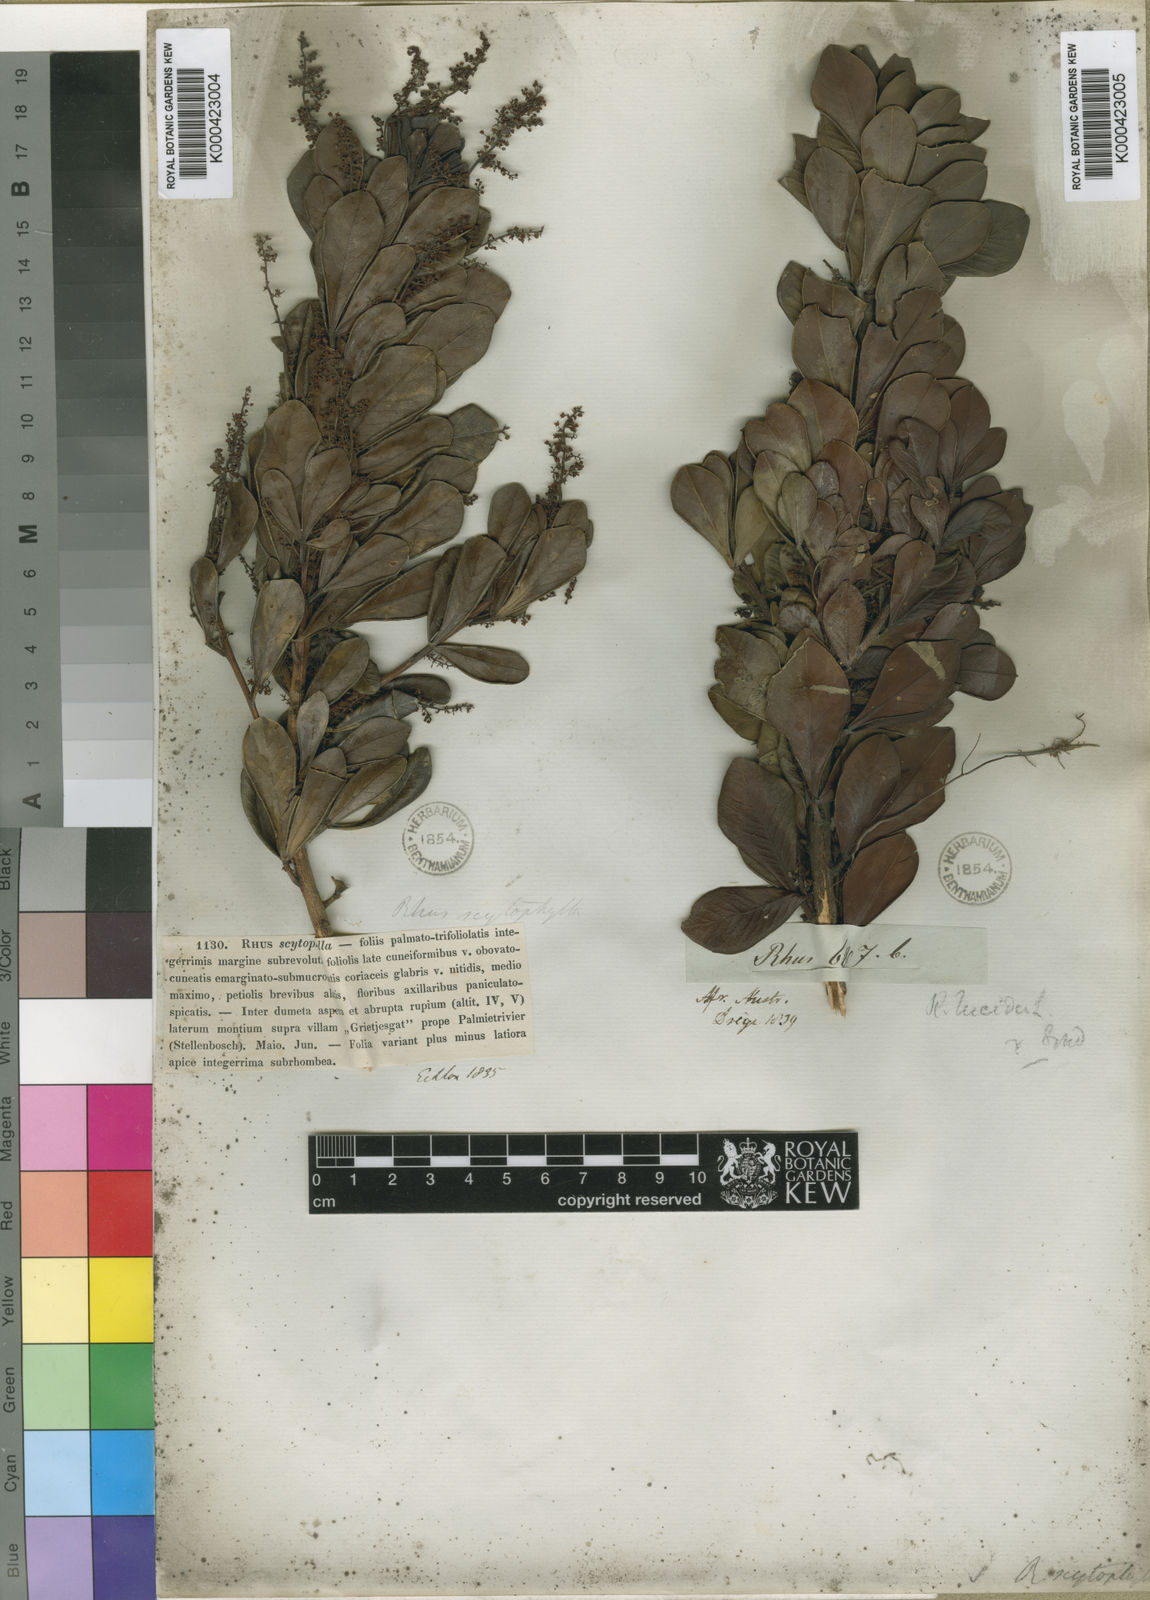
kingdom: Plantae
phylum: Tracheophyta
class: Magnoliopsida
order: Sapindales
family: Anacardiaceae
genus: Searsia
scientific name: Searsia scytophylla
